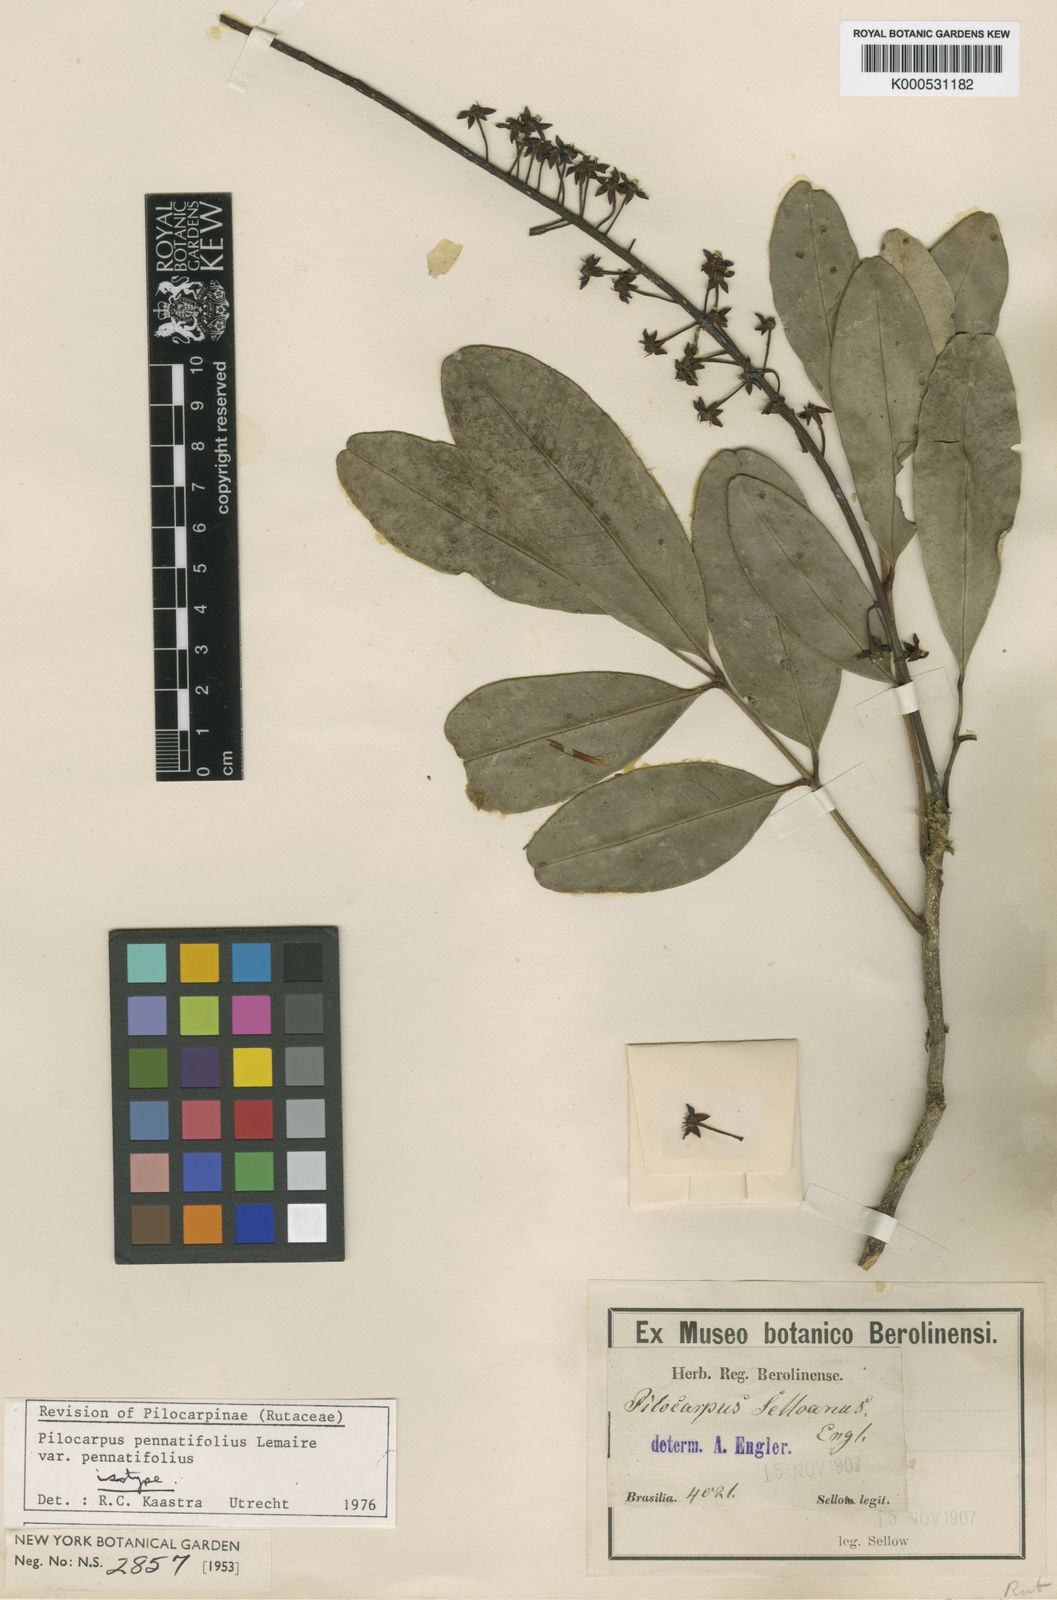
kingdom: Plantae
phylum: Tracheophyta
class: Magnoliopsida
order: Sapindales
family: Rutaceae
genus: Pilocarpus
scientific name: Pilocarpus pennatifolius
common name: Paraguay jaborandi
